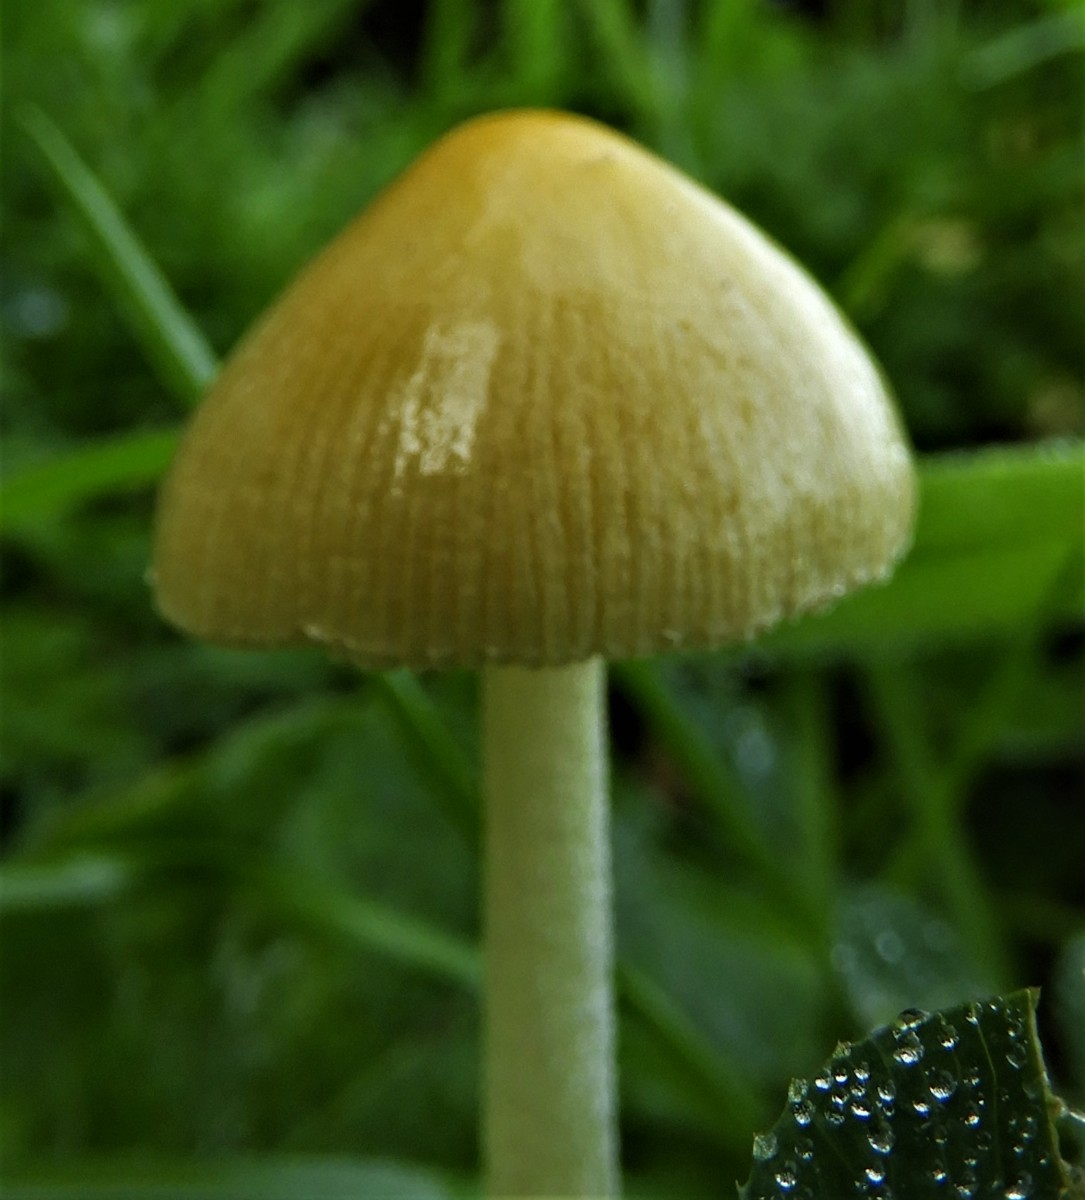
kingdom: Fungi
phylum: Basidiomycota
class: Agaricomycetes
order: Agaricales
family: Bolbitiaceae
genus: Bolbitius
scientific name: Bolbitius titubans
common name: almindelig gulhat
